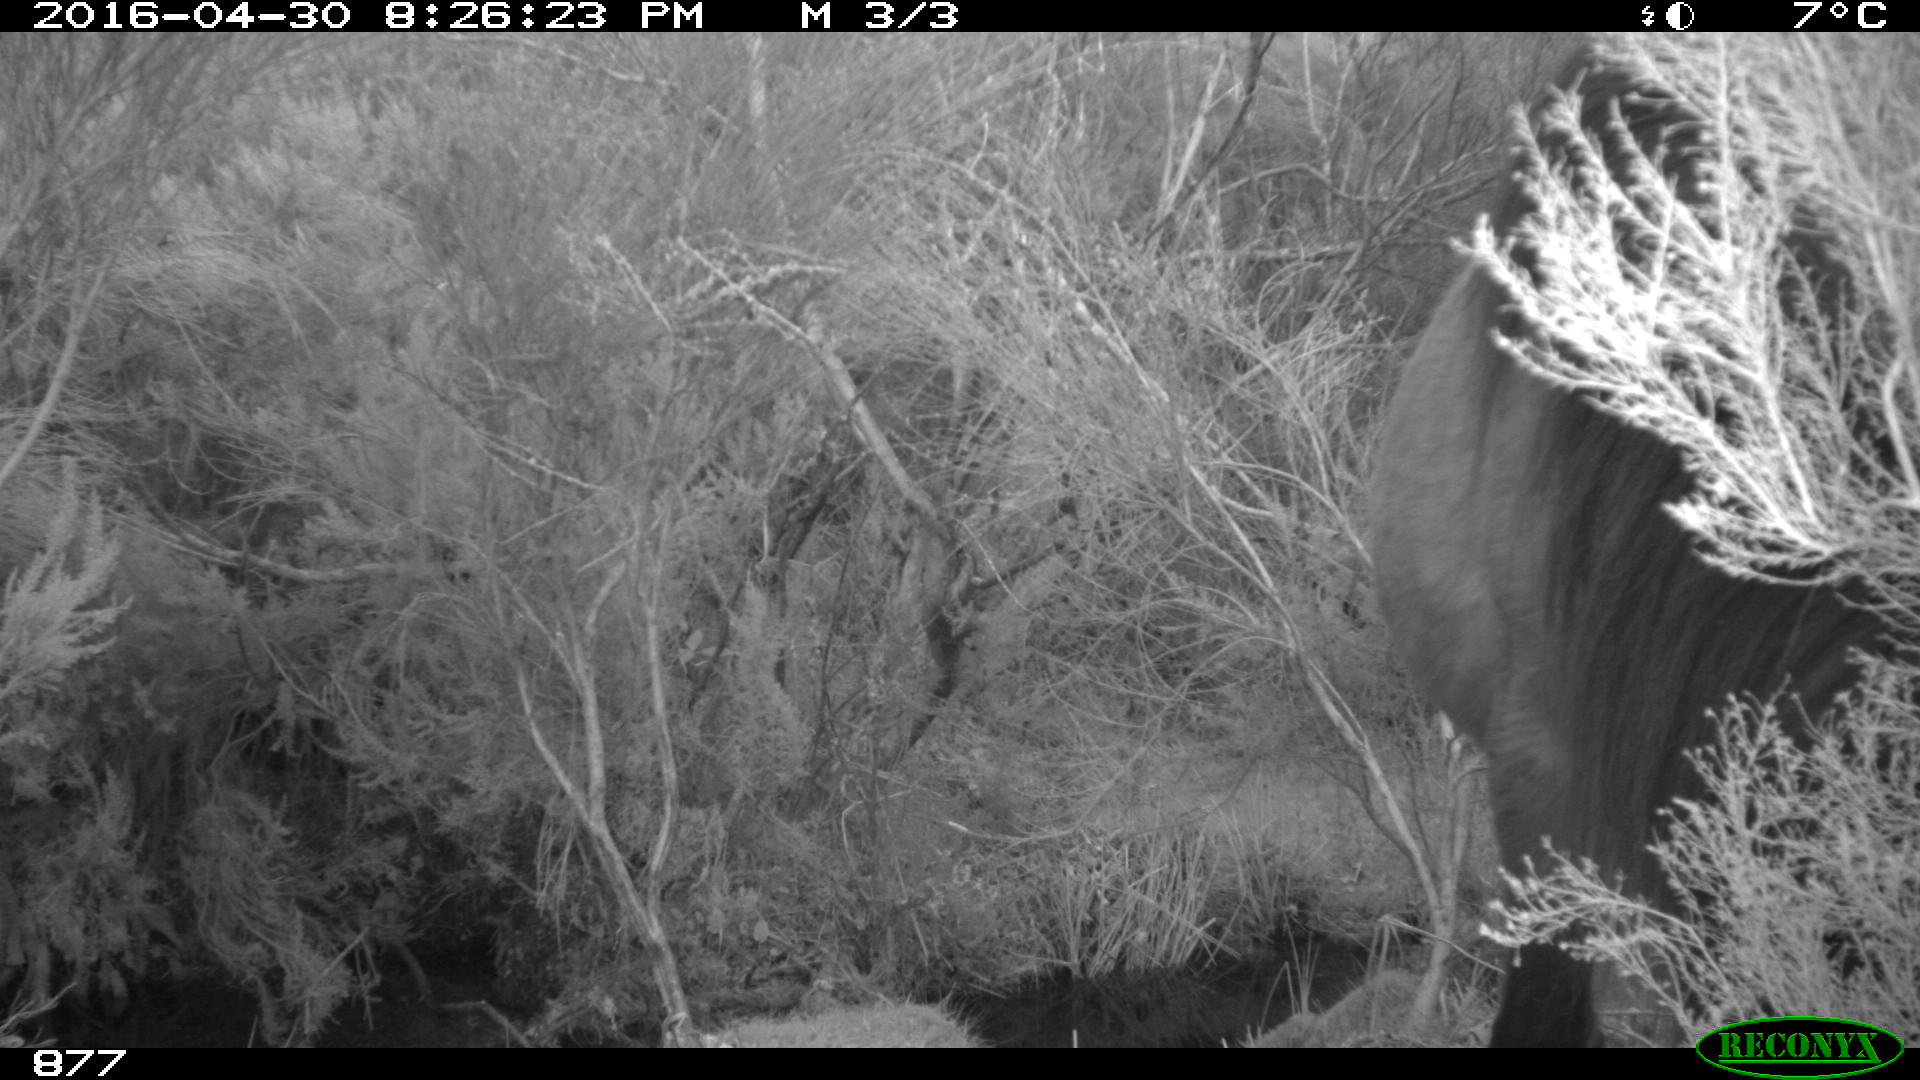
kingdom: Animalia
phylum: Chordata
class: Mammalia
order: Perissodactyla
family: Equidae
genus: Equus
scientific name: Equus caballus
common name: Horse
